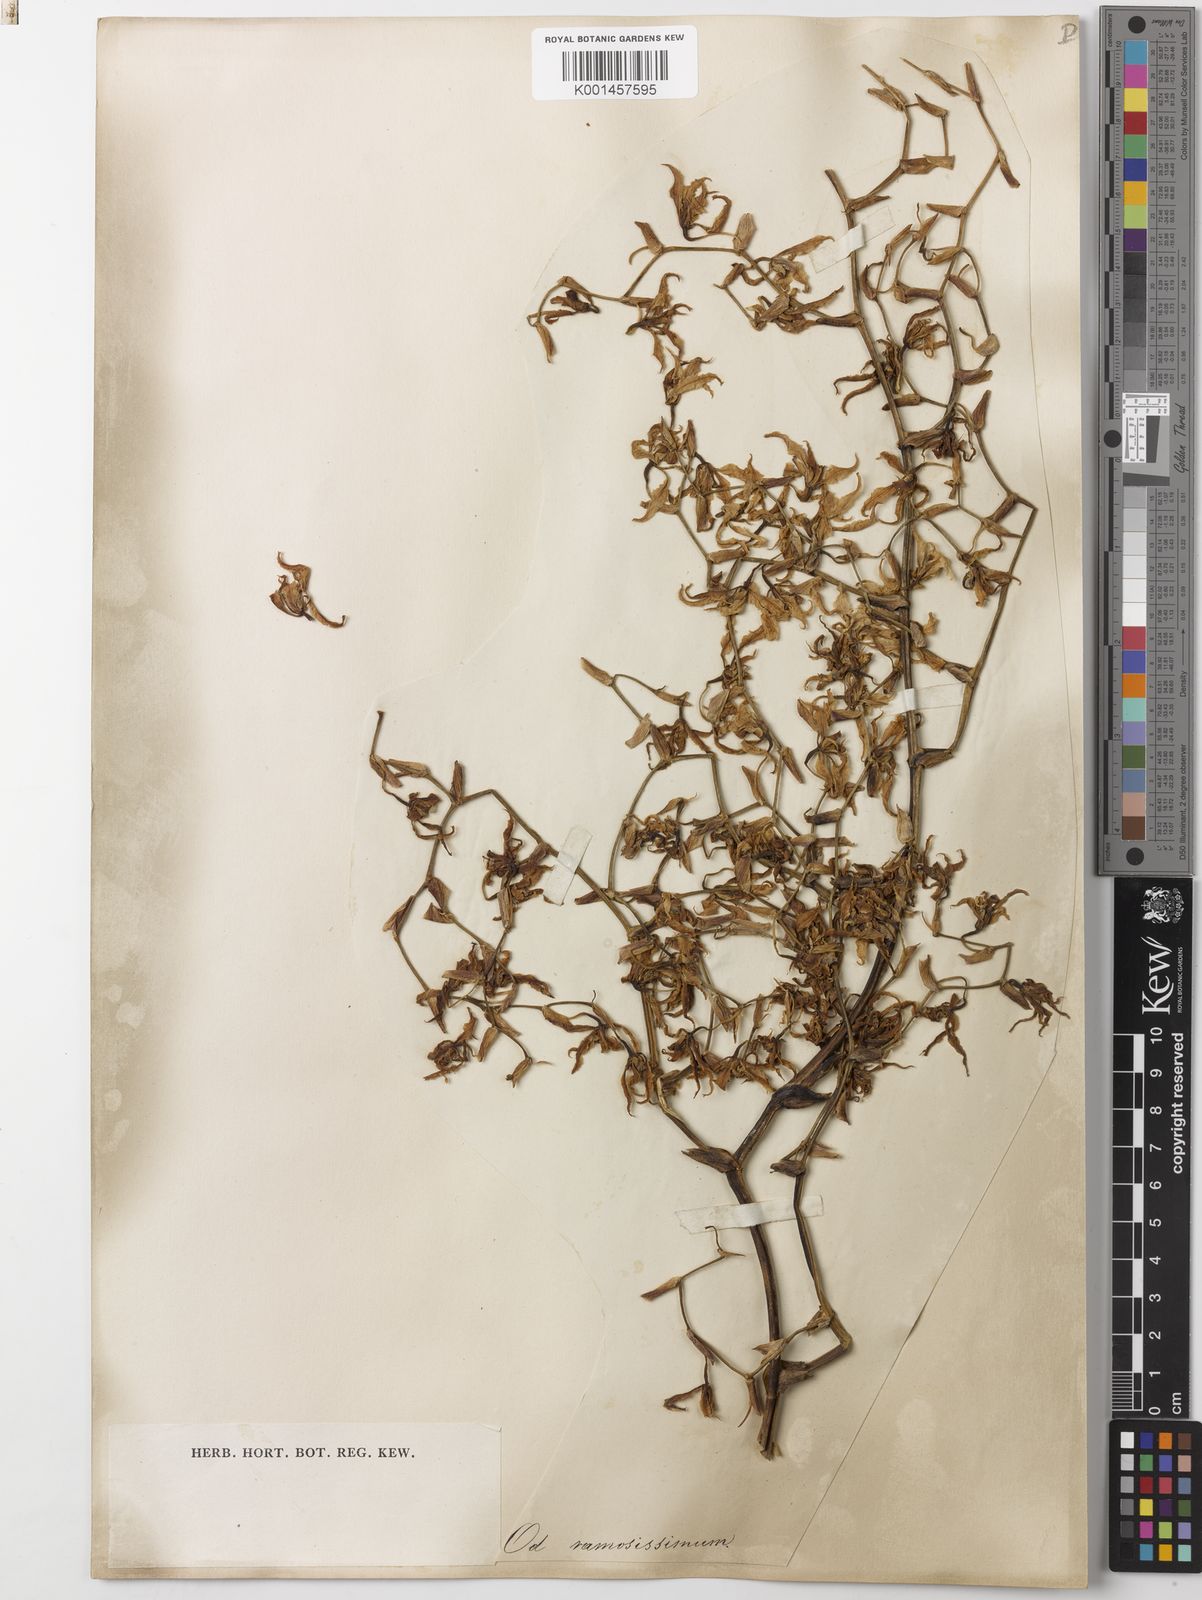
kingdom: Plantae
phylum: Tracheophyta
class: Liliopsida
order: Asparagales
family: Orchidaceae
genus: Cyrtochilum
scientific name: Cyrtochilum ramosissimum
